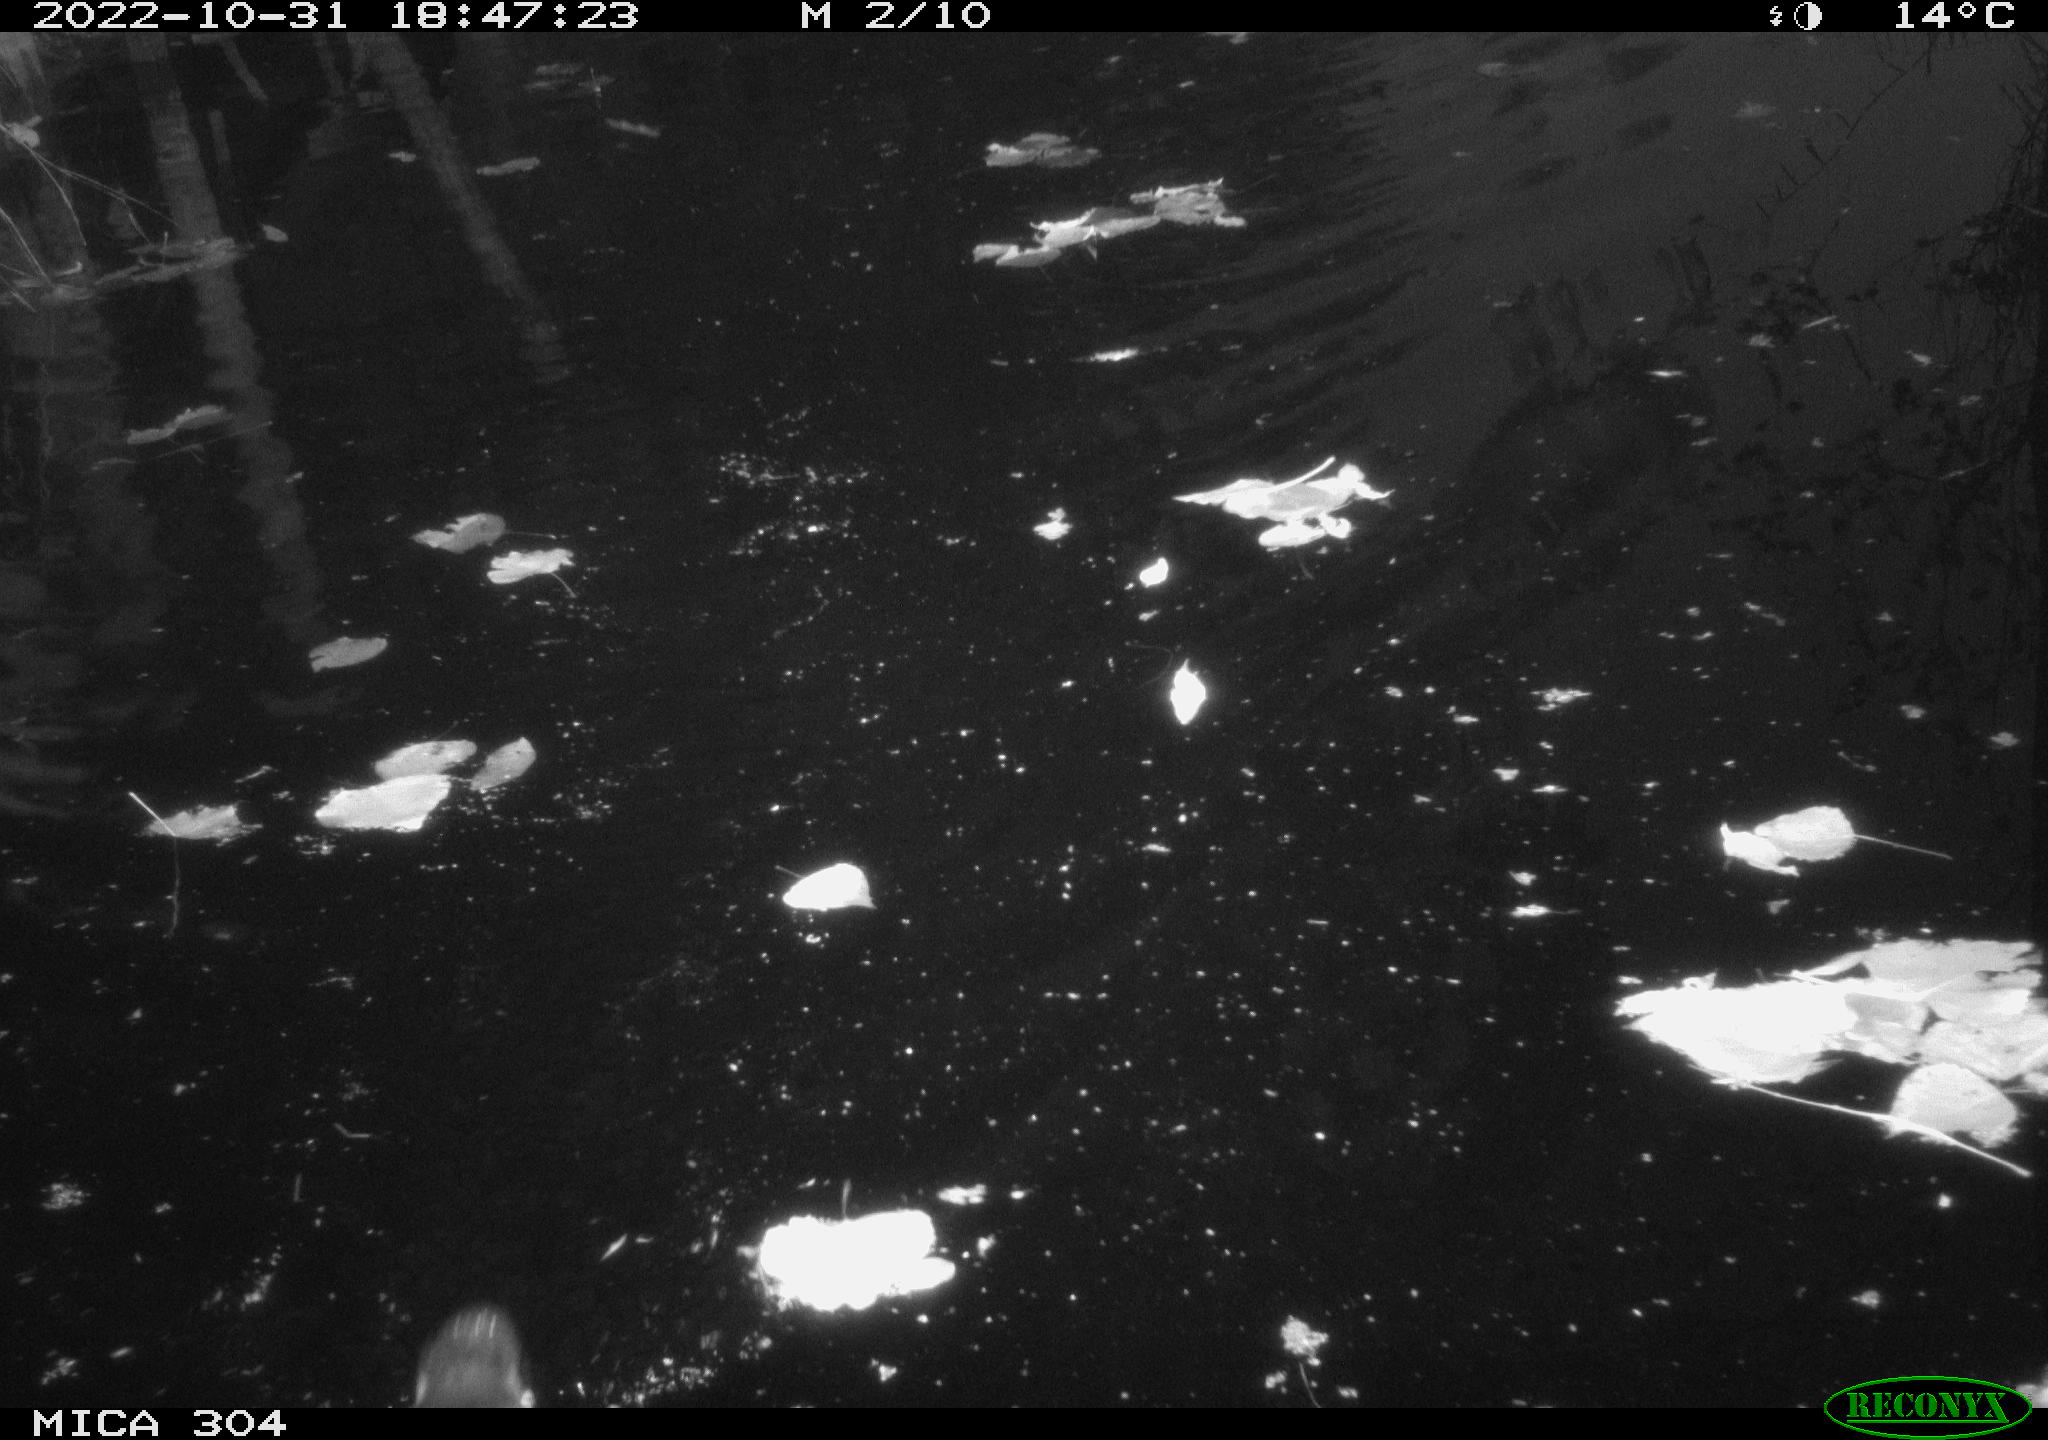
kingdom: Animalia
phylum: Chordata
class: Mammalia
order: Rodentia
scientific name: Rodentia
